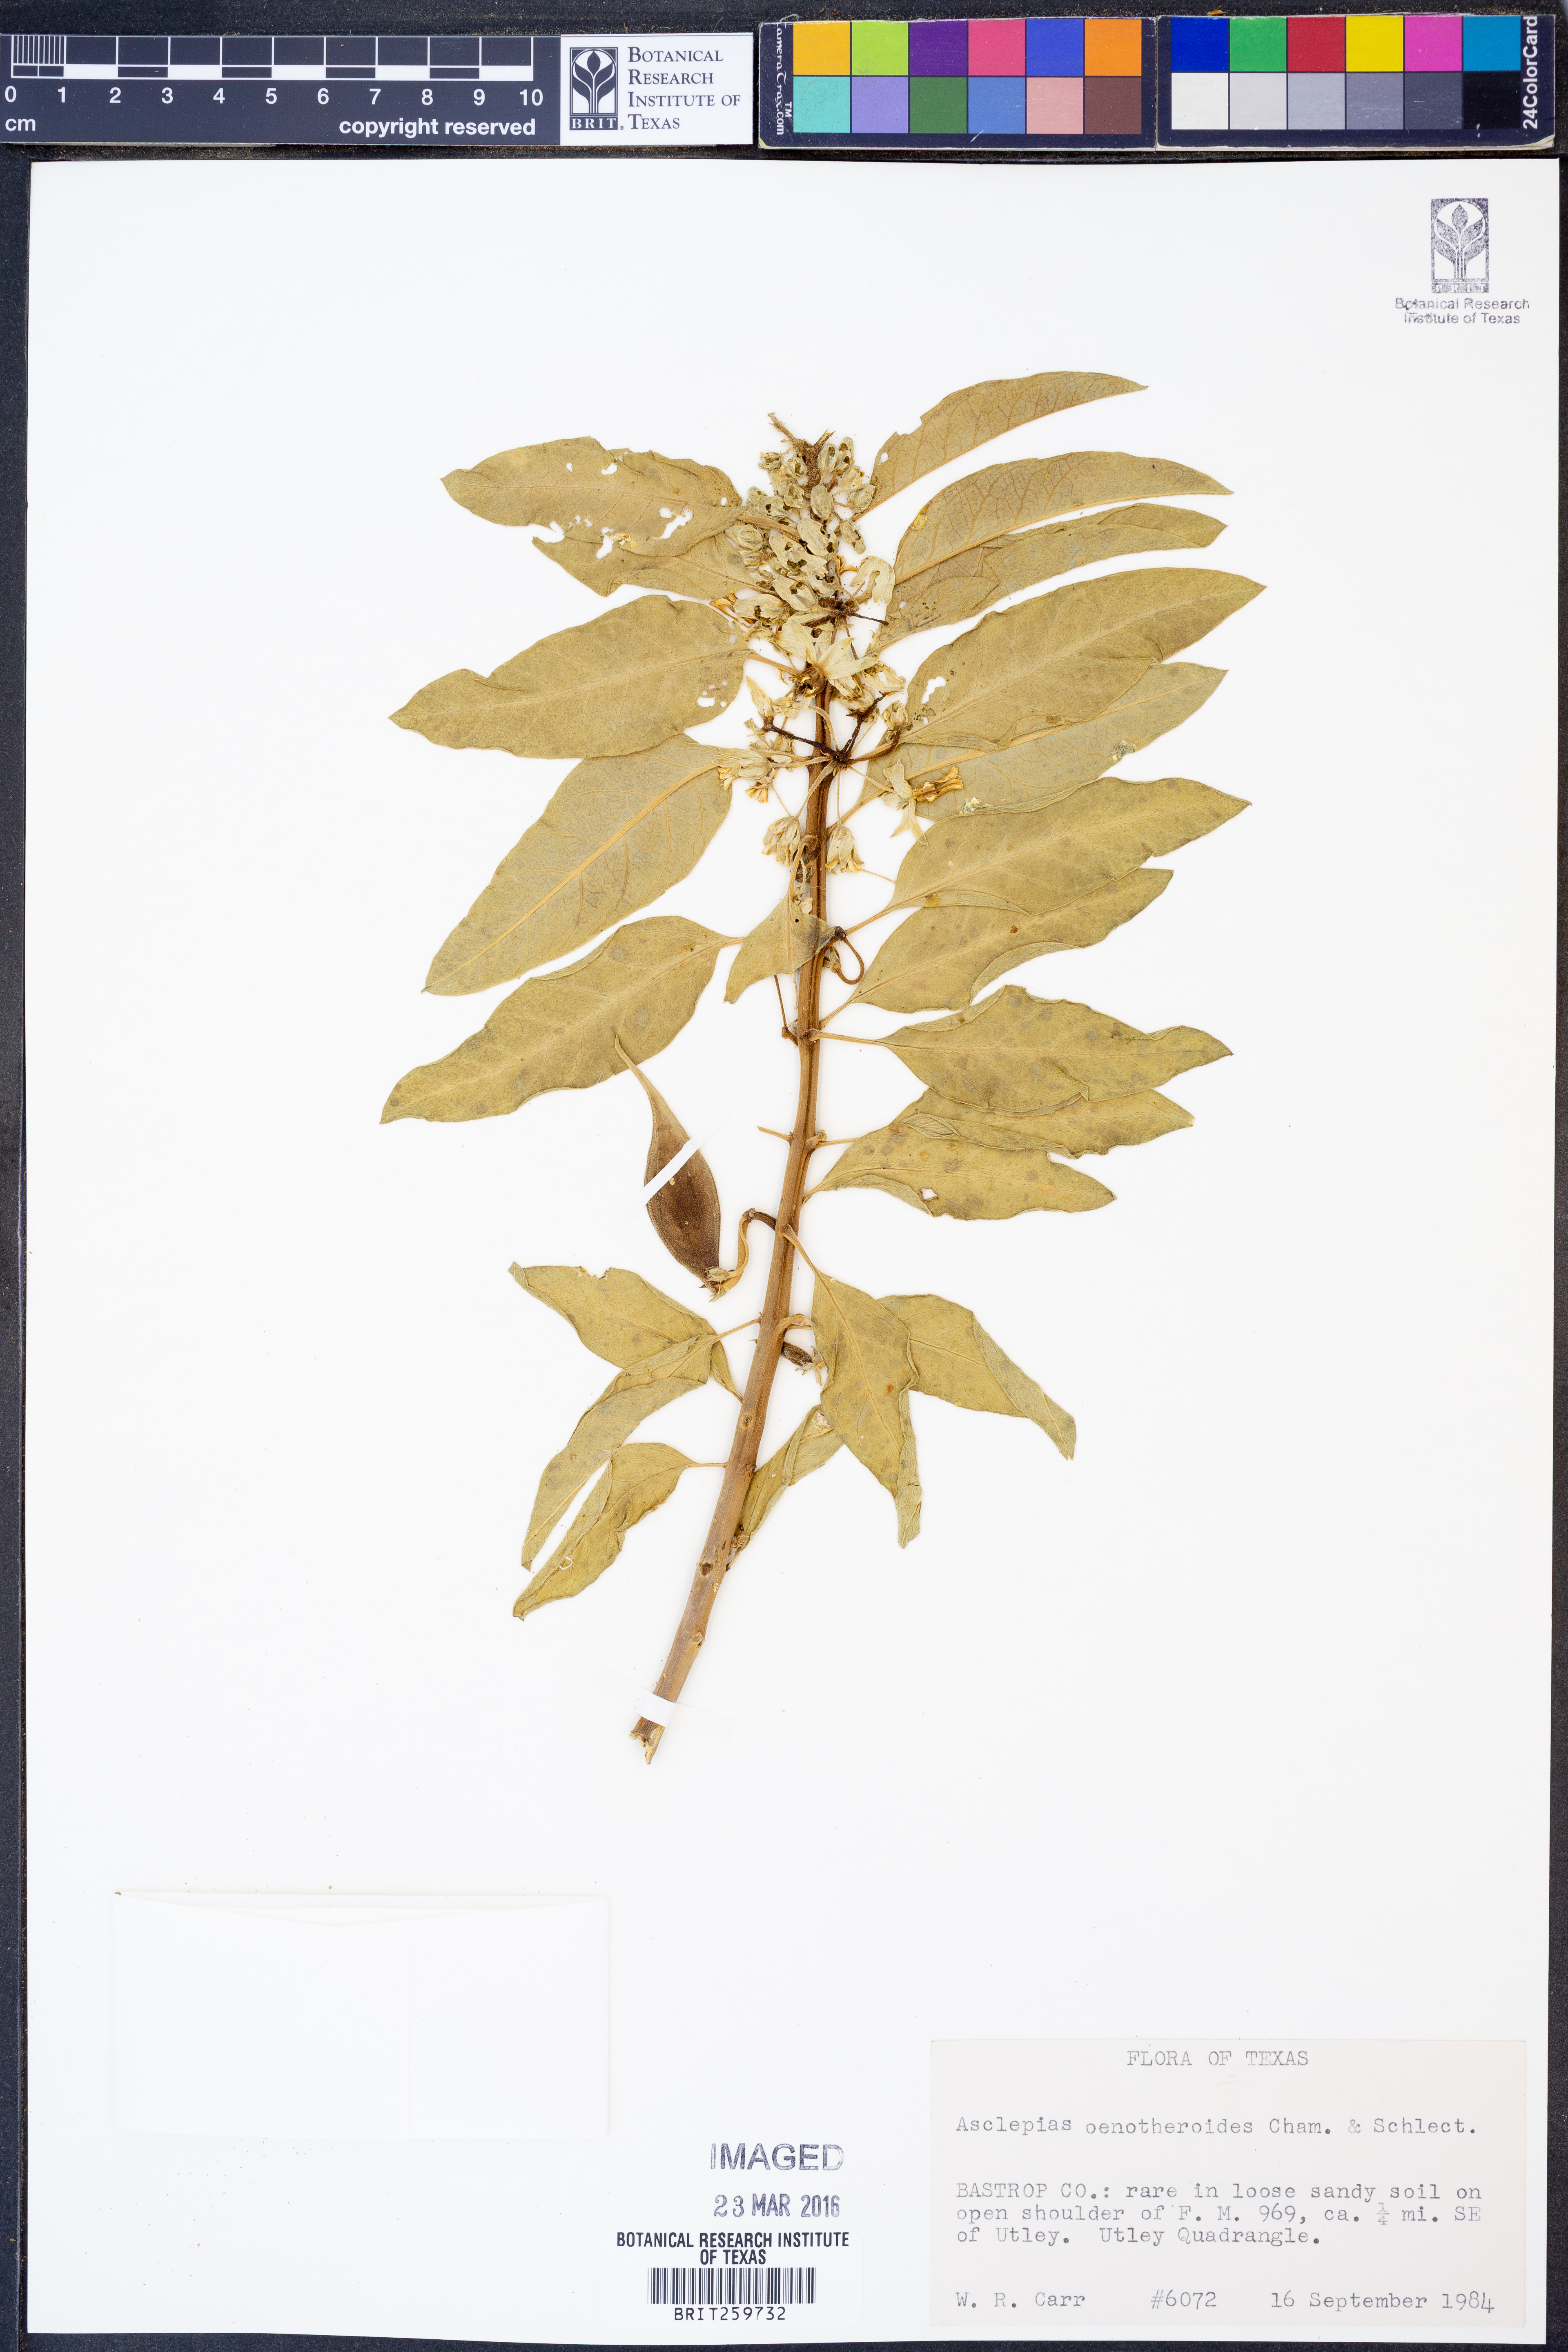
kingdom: Plantae
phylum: Tracheophyta
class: Magnoliopsida
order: Gentianales
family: Apocynaceae
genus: Asclepias
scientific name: Asclepias oenotheroides
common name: Zizotes milkweed
